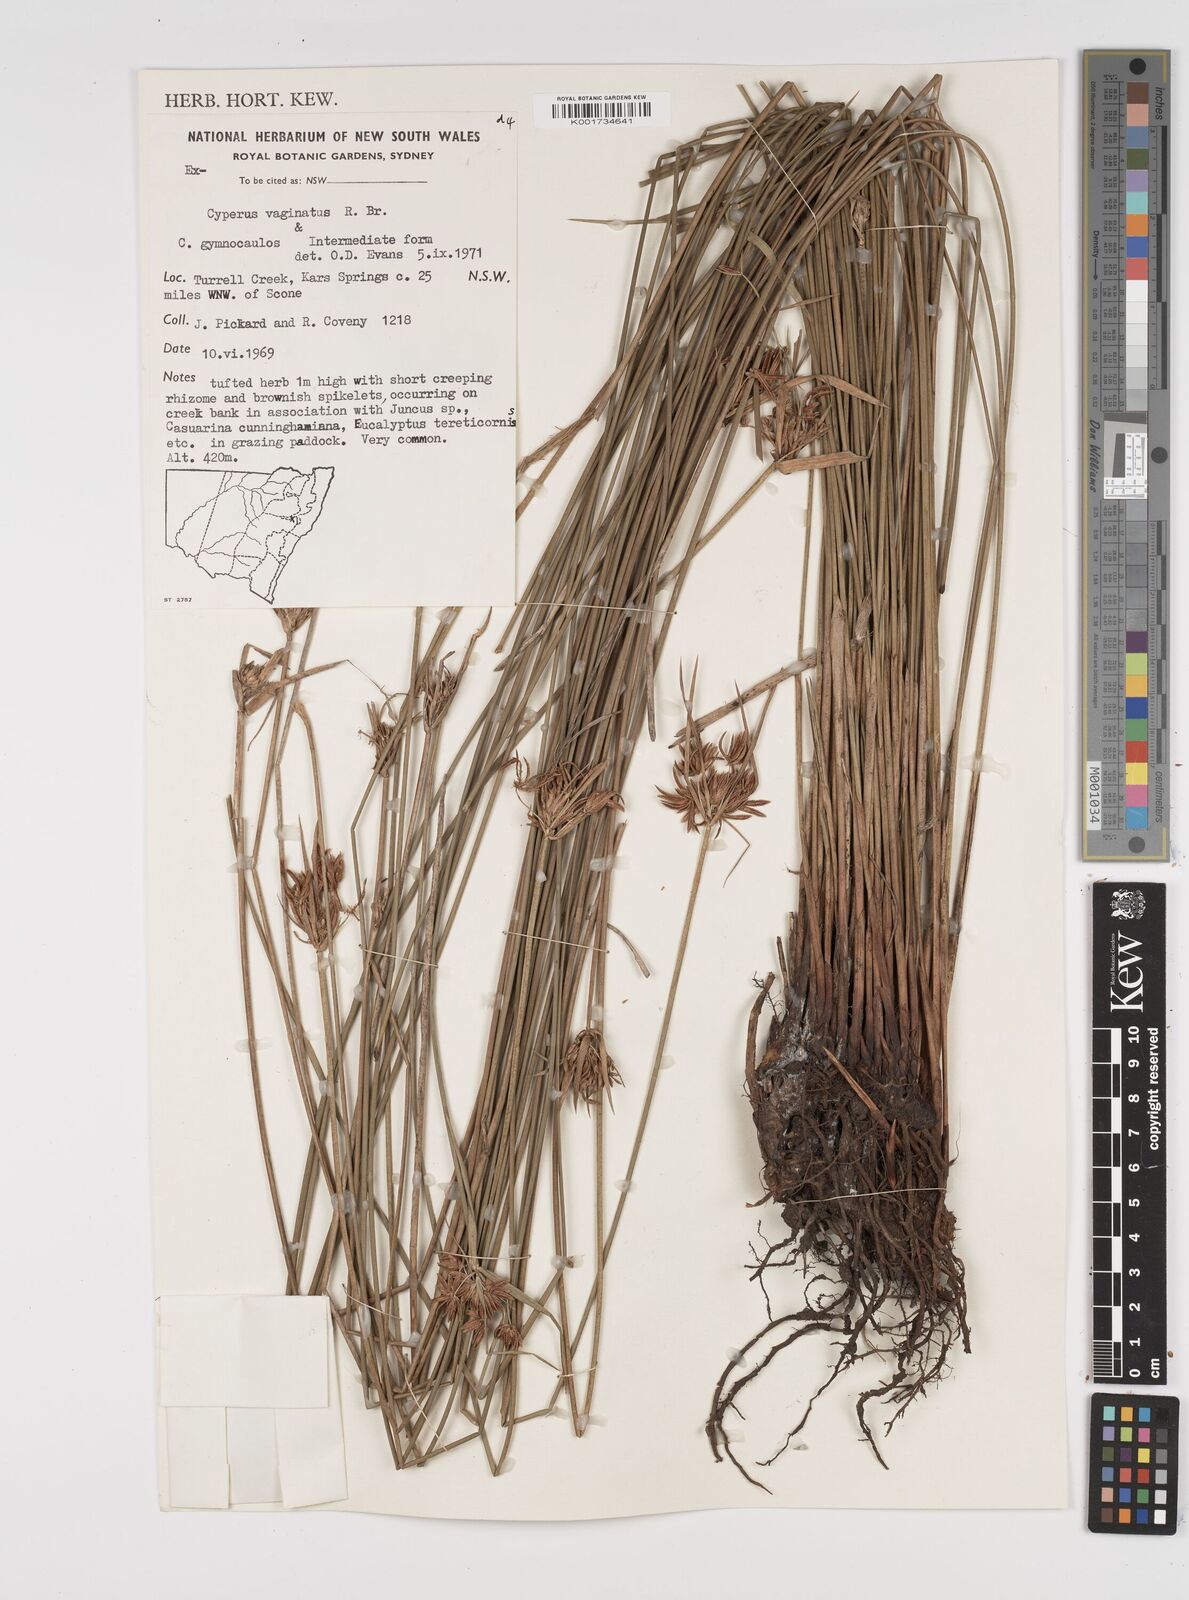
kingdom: Plantae
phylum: Tracheophyta
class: Liliopsida
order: Poales
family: Cyperaceae
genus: Cyperus
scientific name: Cyperus gymnocaulos
